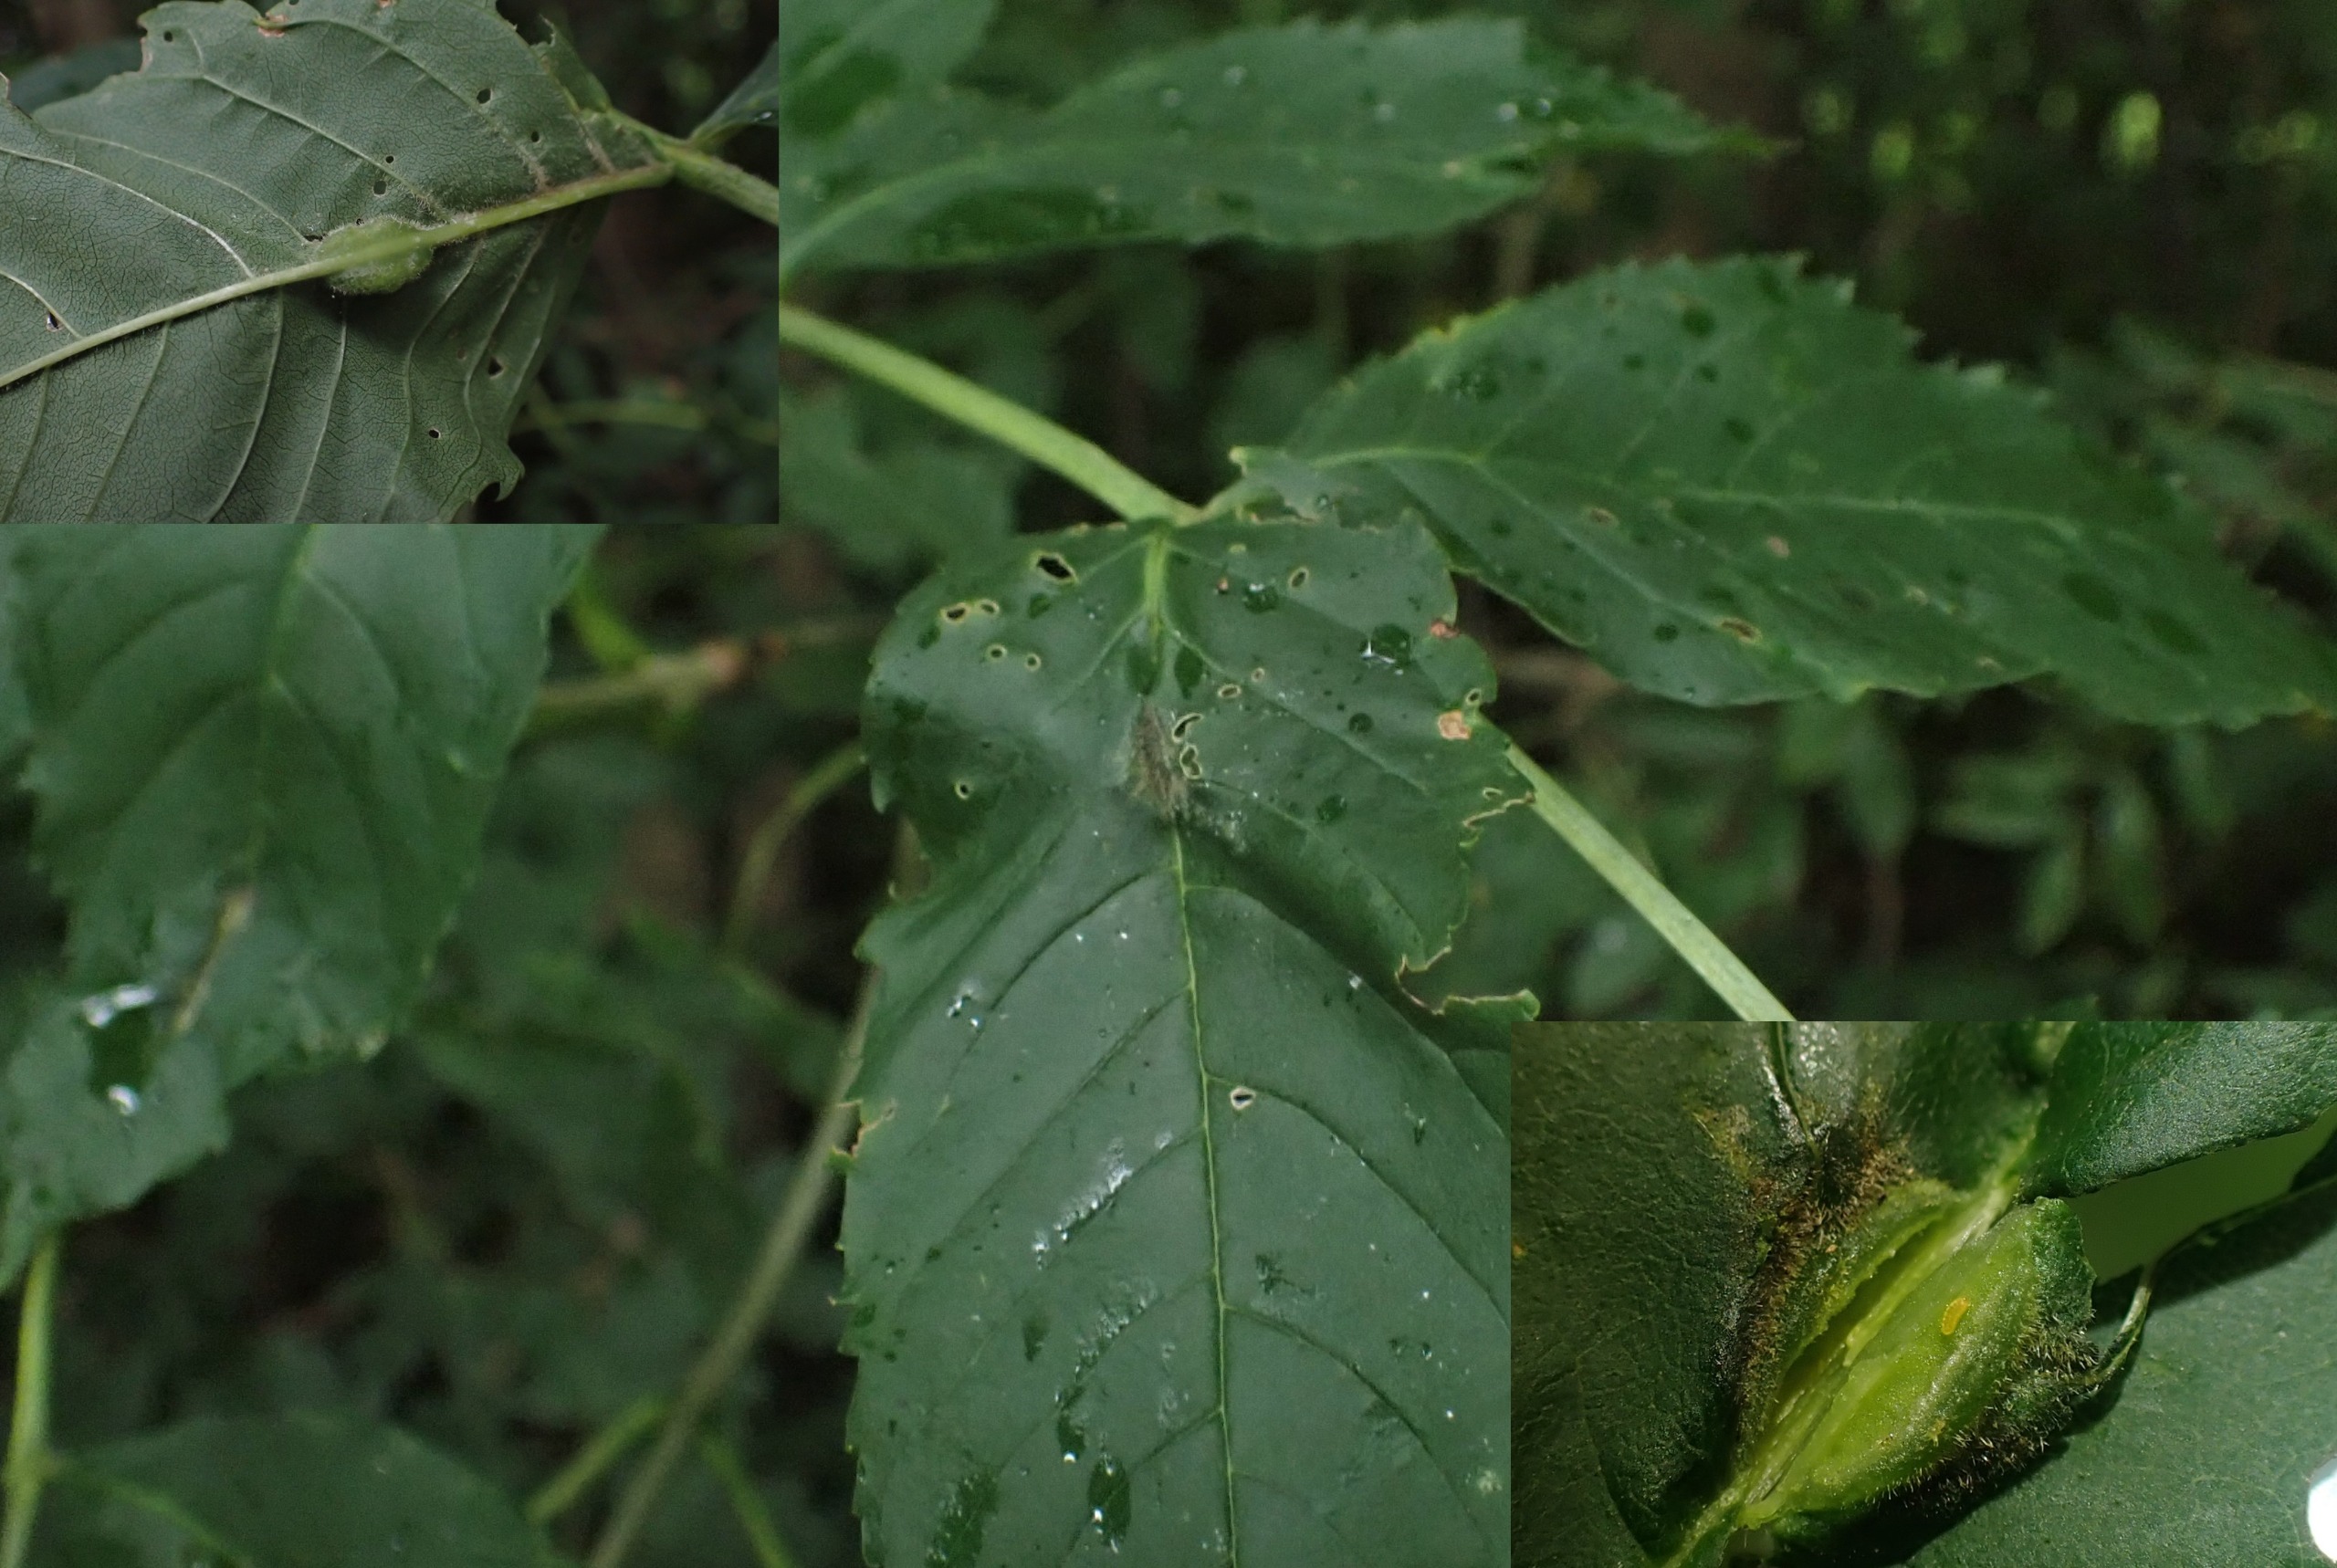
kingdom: Animalia
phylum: Arthropoda
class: Insecta
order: Diptera
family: Cecidomyiidae
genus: Dasineura
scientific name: Dasineura fraxini
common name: Orange askebladgalmyg
